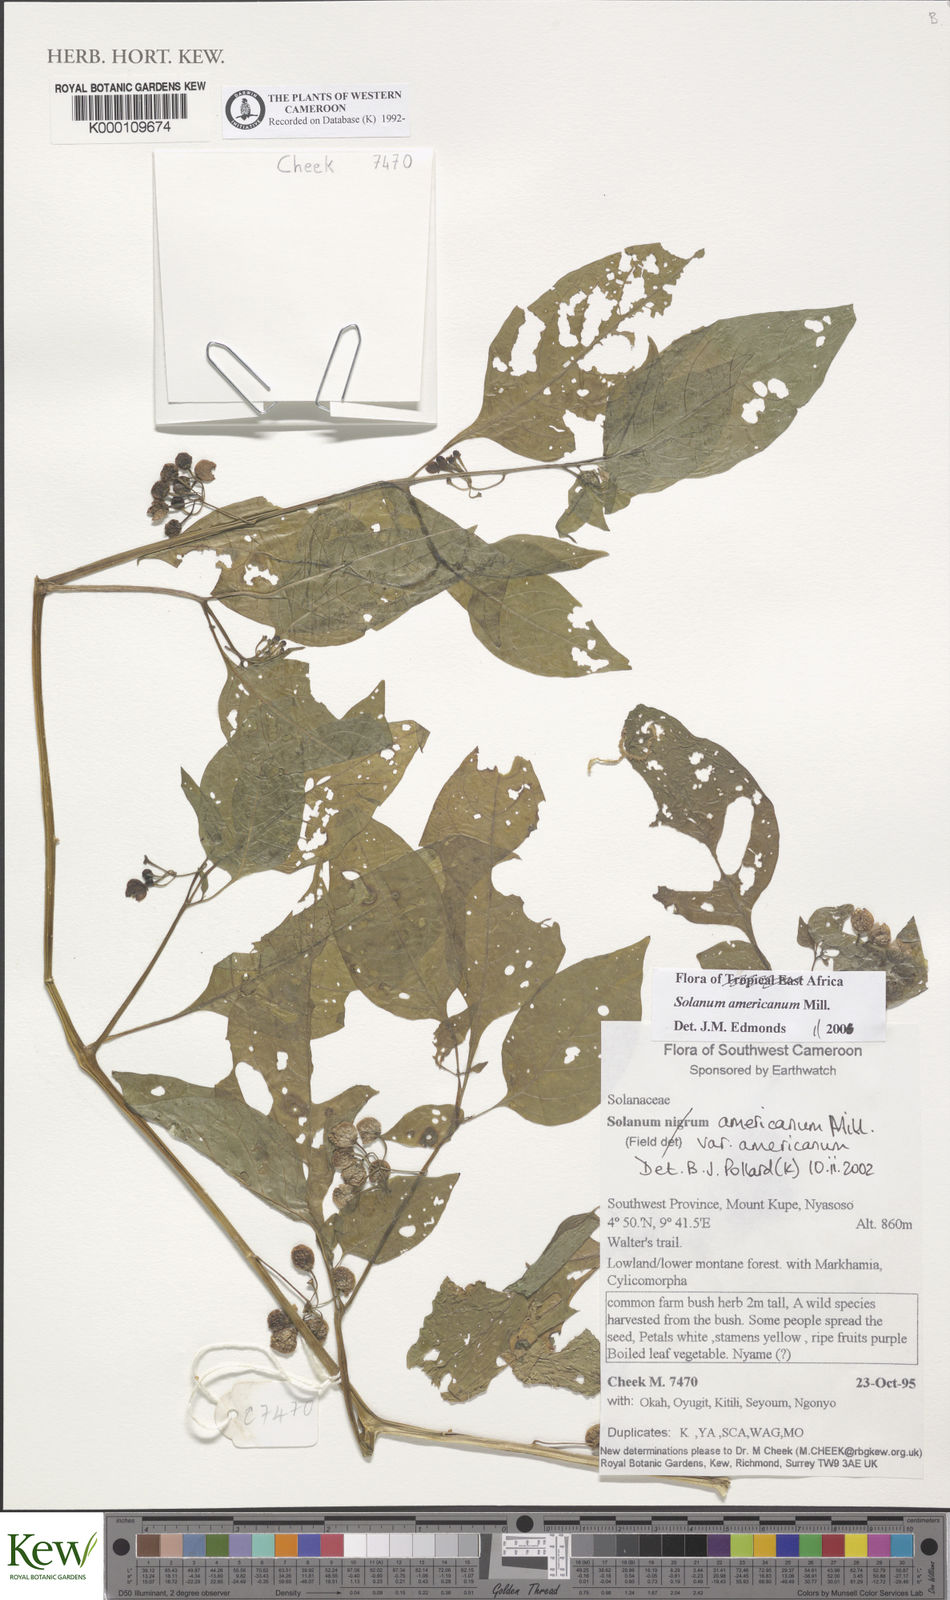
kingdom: Plantae
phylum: Tracheophyta
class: Magnoliopsida
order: Solanales
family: Solanaceae
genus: Solanum
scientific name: Solanum americanum
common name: American black nightshade
